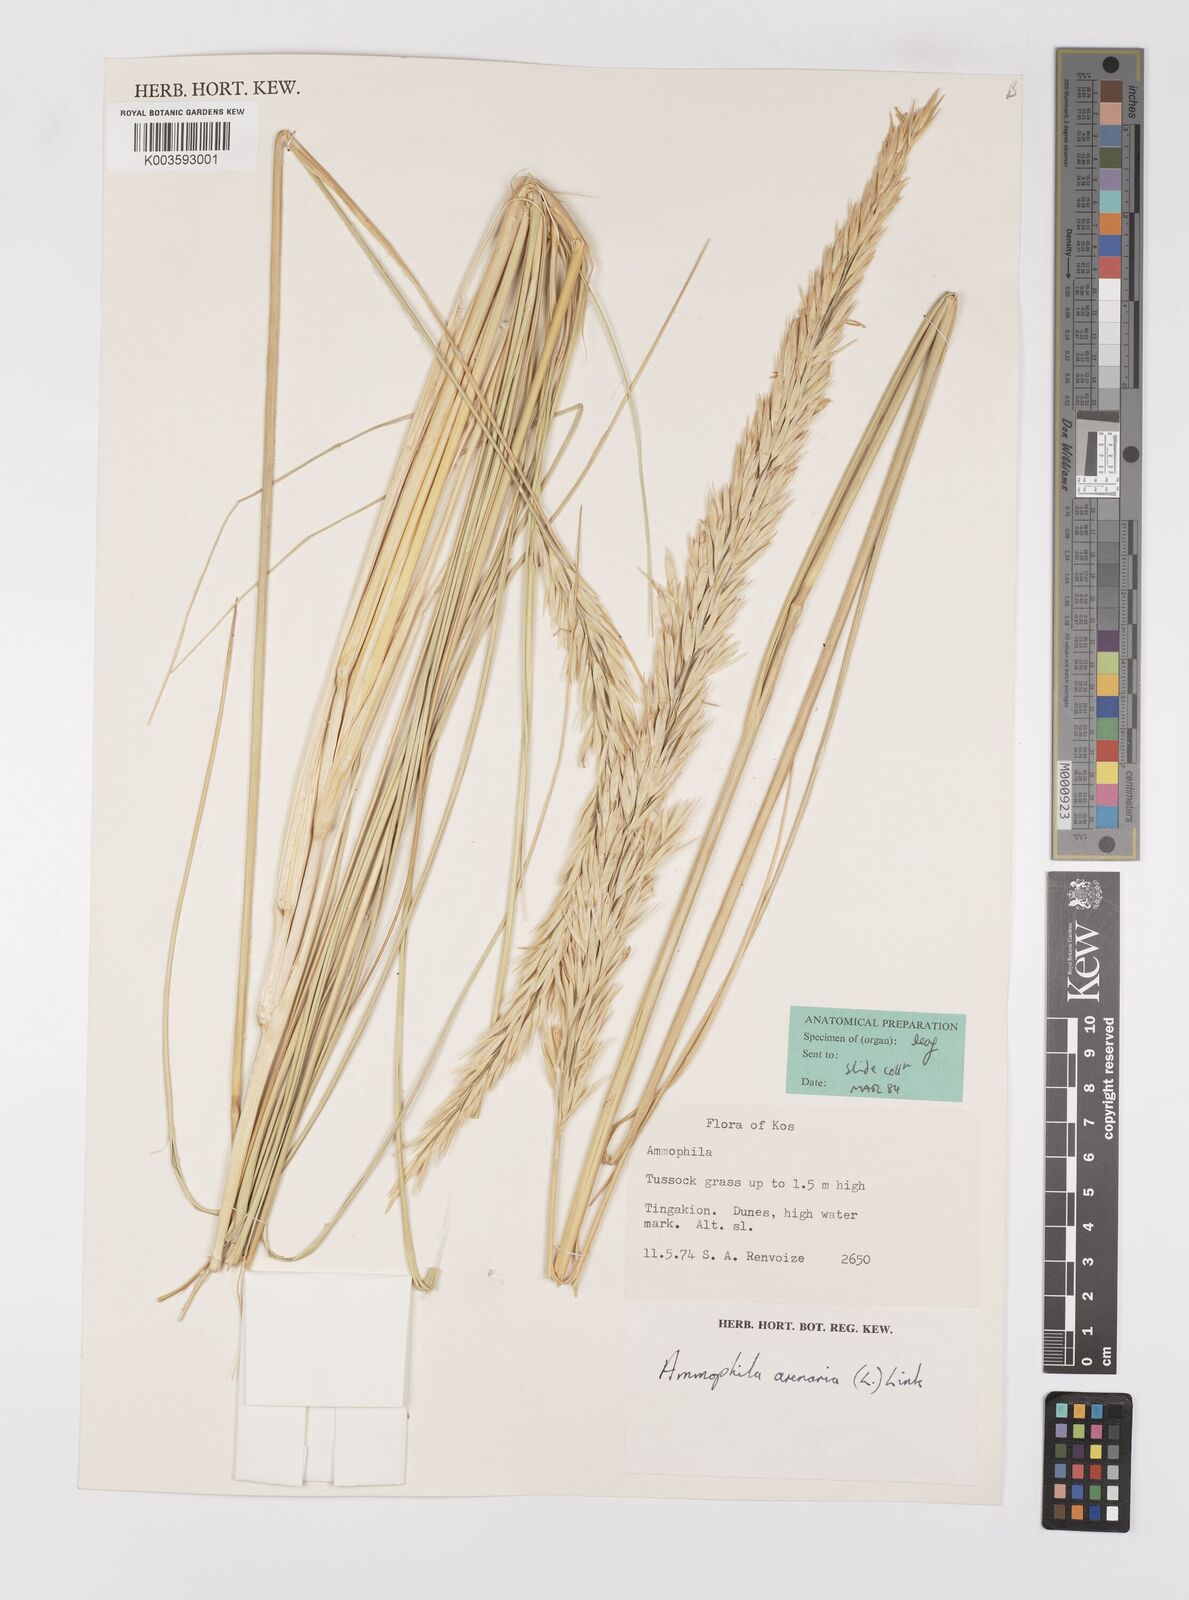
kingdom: Plantae
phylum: Tracheophyta
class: Liliopsida
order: Poales
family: Poaceae
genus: Calamagrostis
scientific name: Calamagrostis arenaria
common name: European beachgrass
